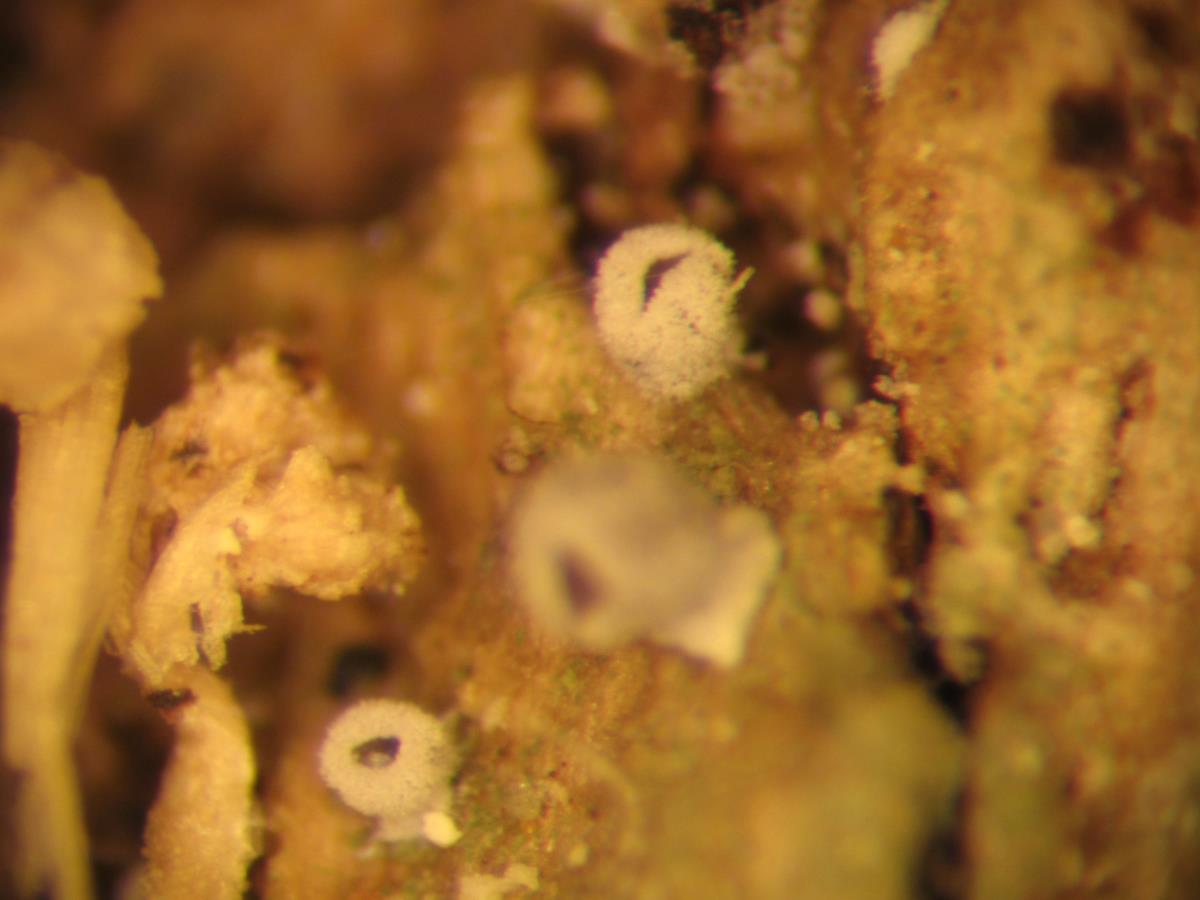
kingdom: Fungi
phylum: Basidiomycota
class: Agaricomycetes
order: Agaricales
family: Pleurotaceae
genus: Resupinatus
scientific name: Resupinatus
